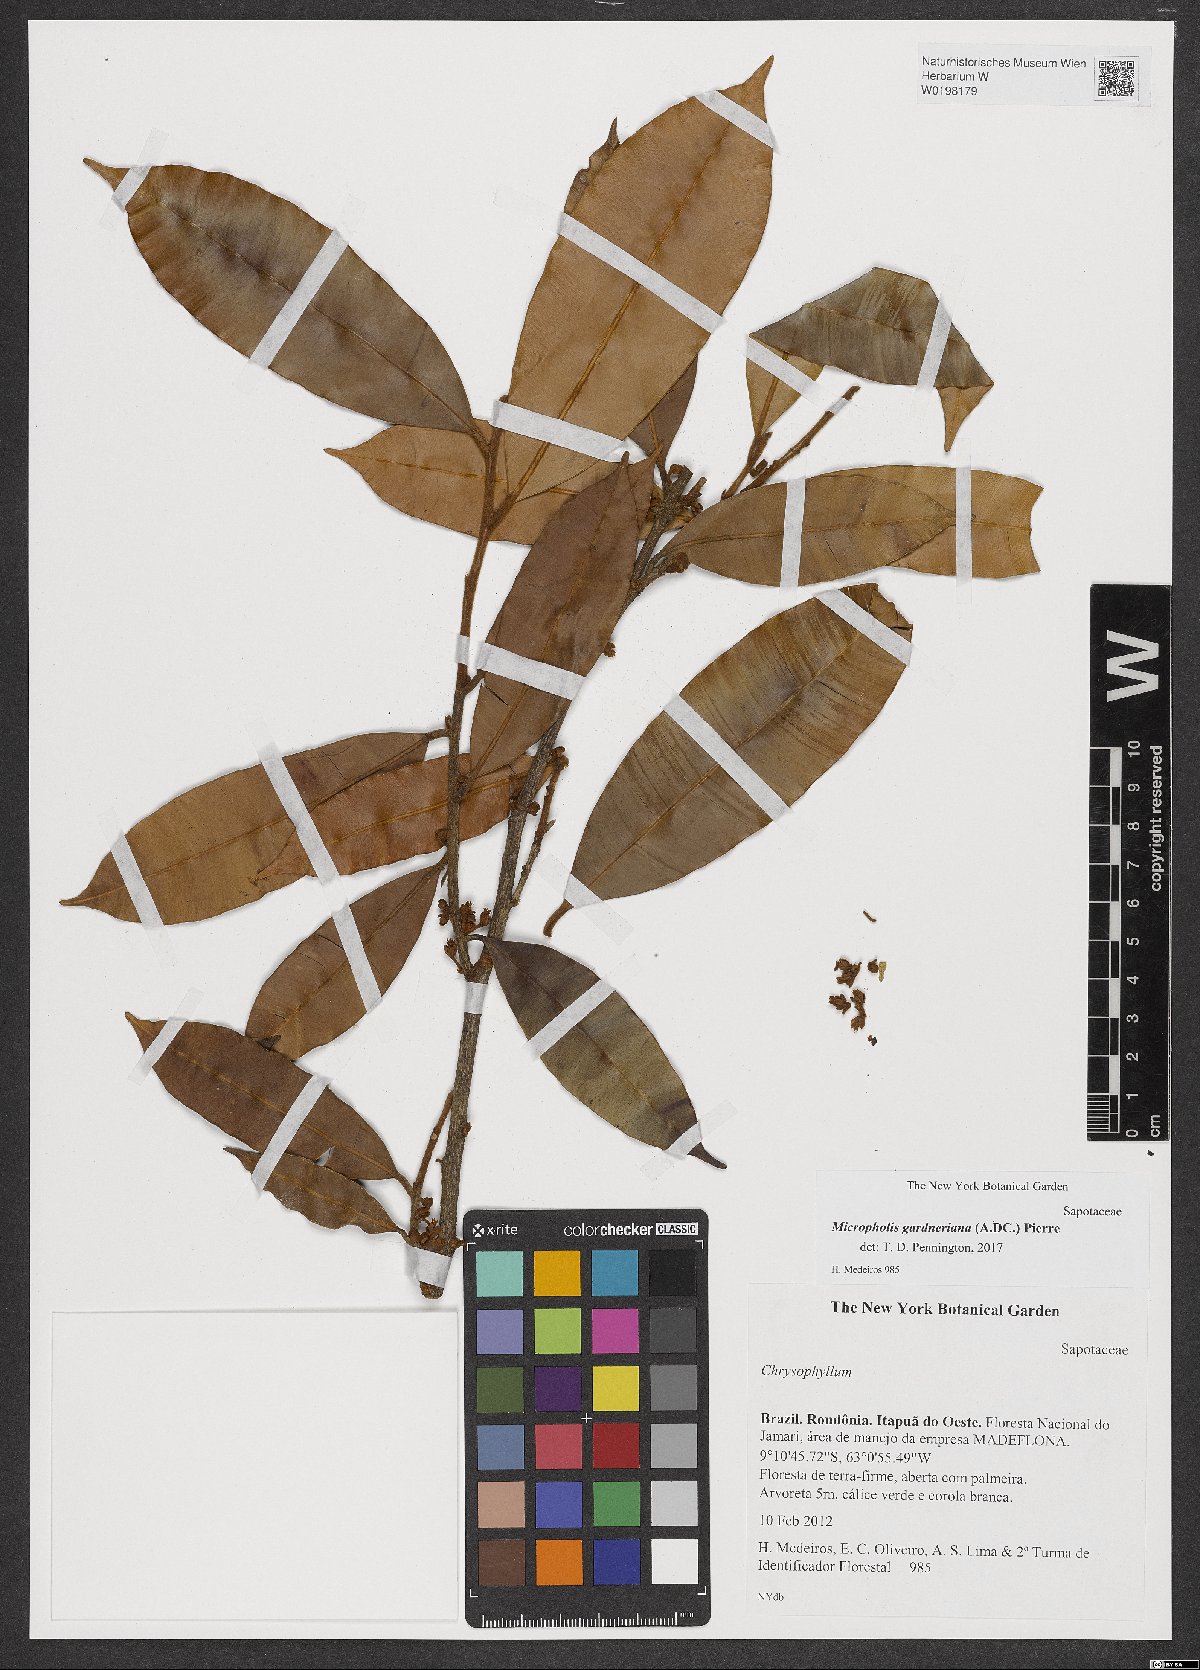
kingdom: Plantae
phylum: Tracheophyta
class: Magnoliopsida
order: Ericales
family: Sapotaceae
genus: Micropholis
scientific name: Micropholis gardneriana
